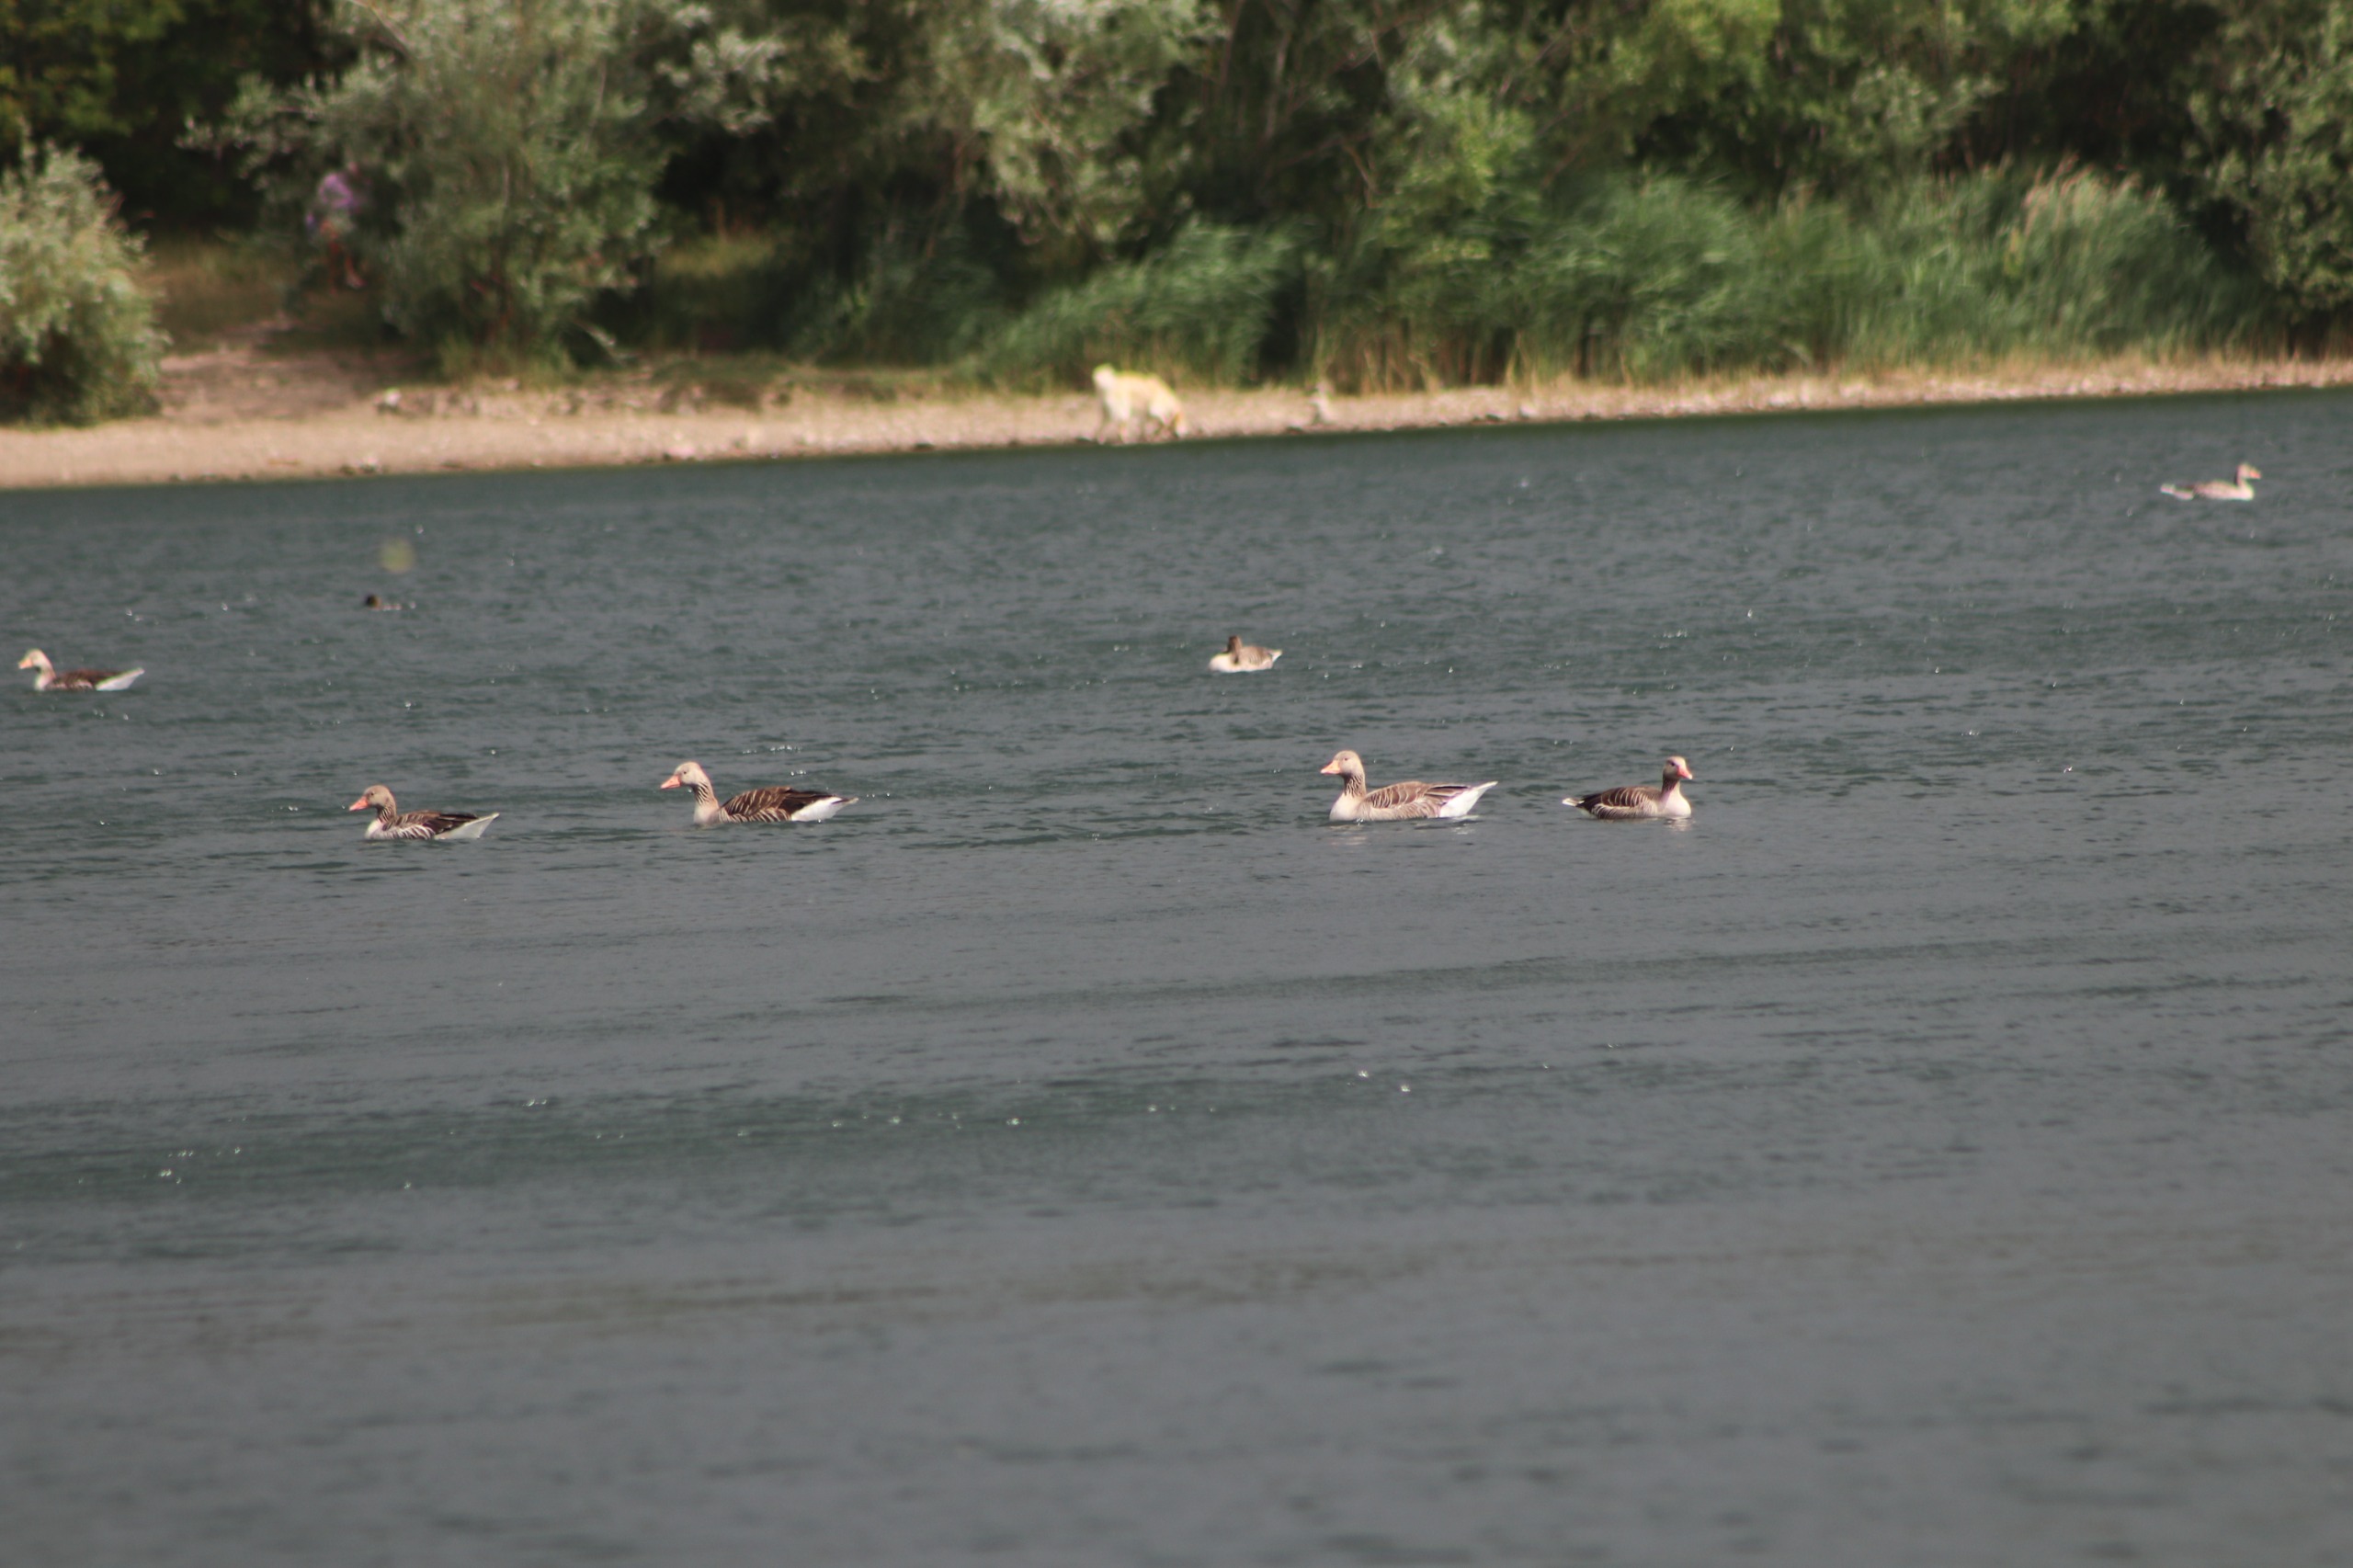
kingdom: Animalia
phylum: Chordata
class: Aves
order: Anseriformes
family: Anatidae
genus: Anser
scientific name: Anser anser
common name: Grågås
